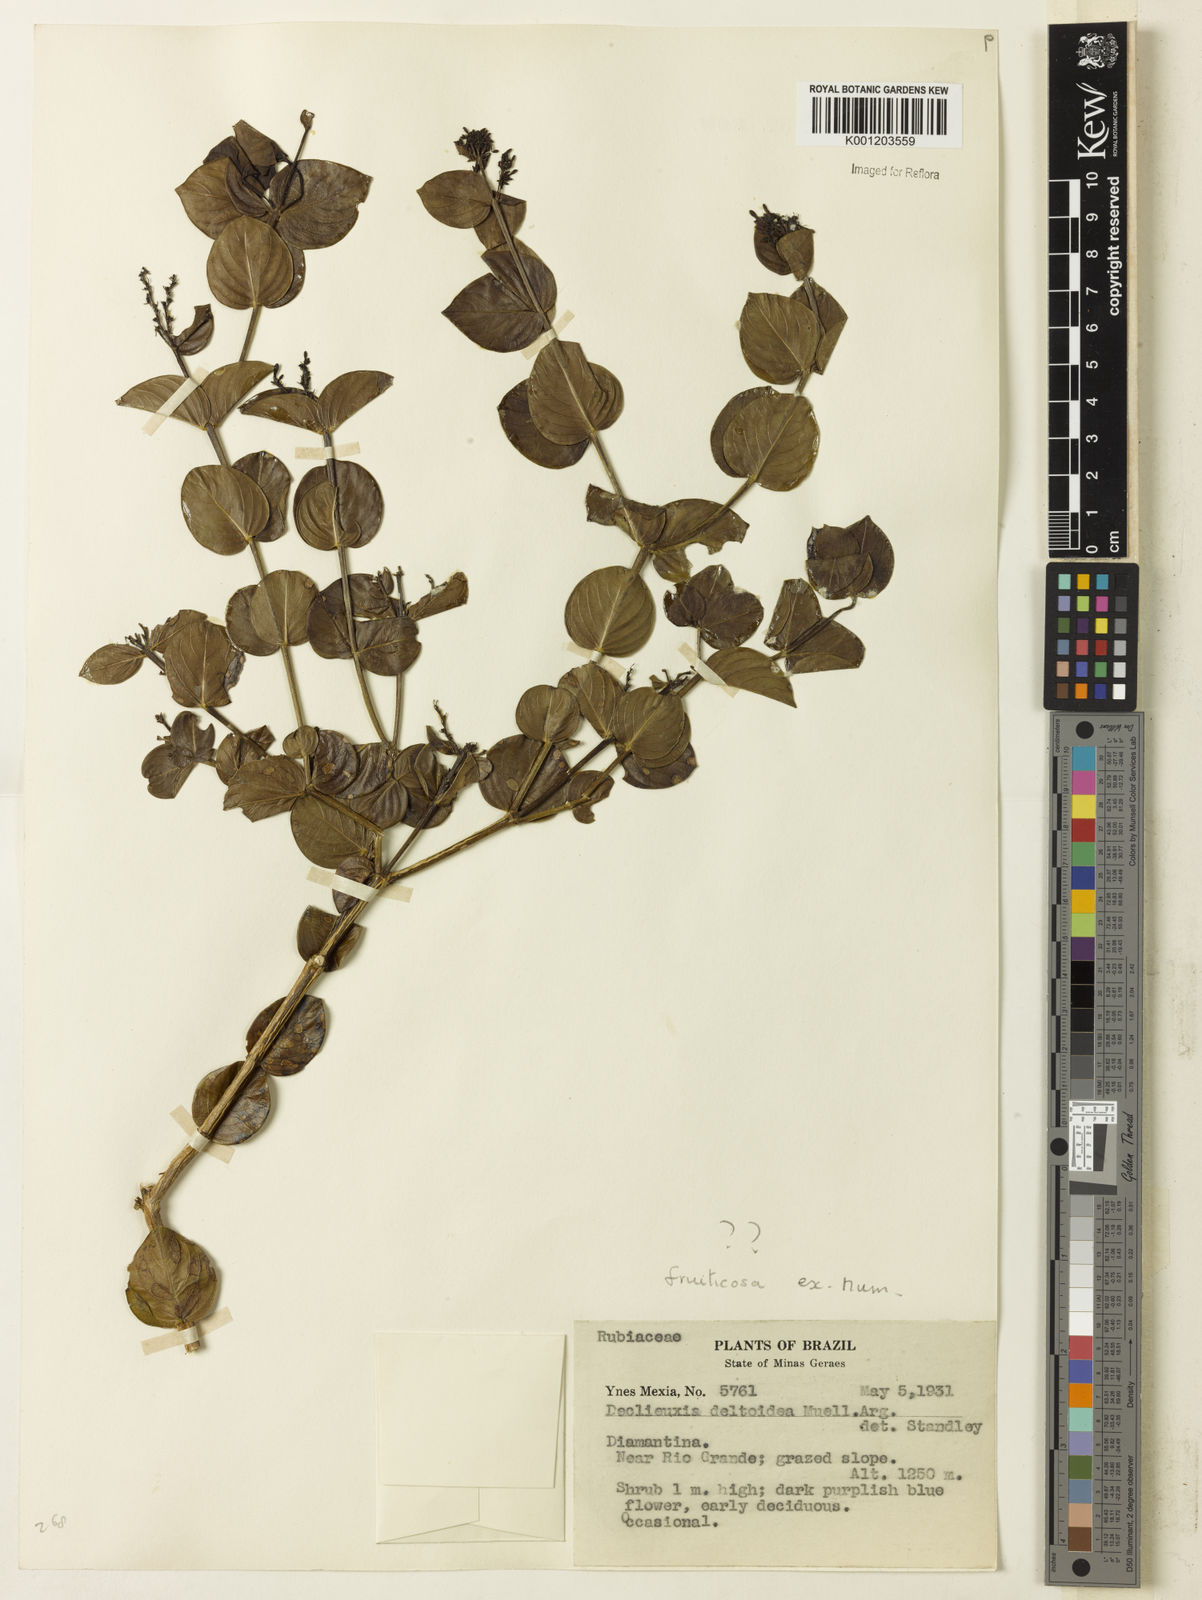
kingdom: Plantae
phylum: Tracheophyta
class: Magnoliopsida
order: Gentianales
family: Rubiaceae
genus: Declieuxia
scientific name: Declieuxia fruticosa
